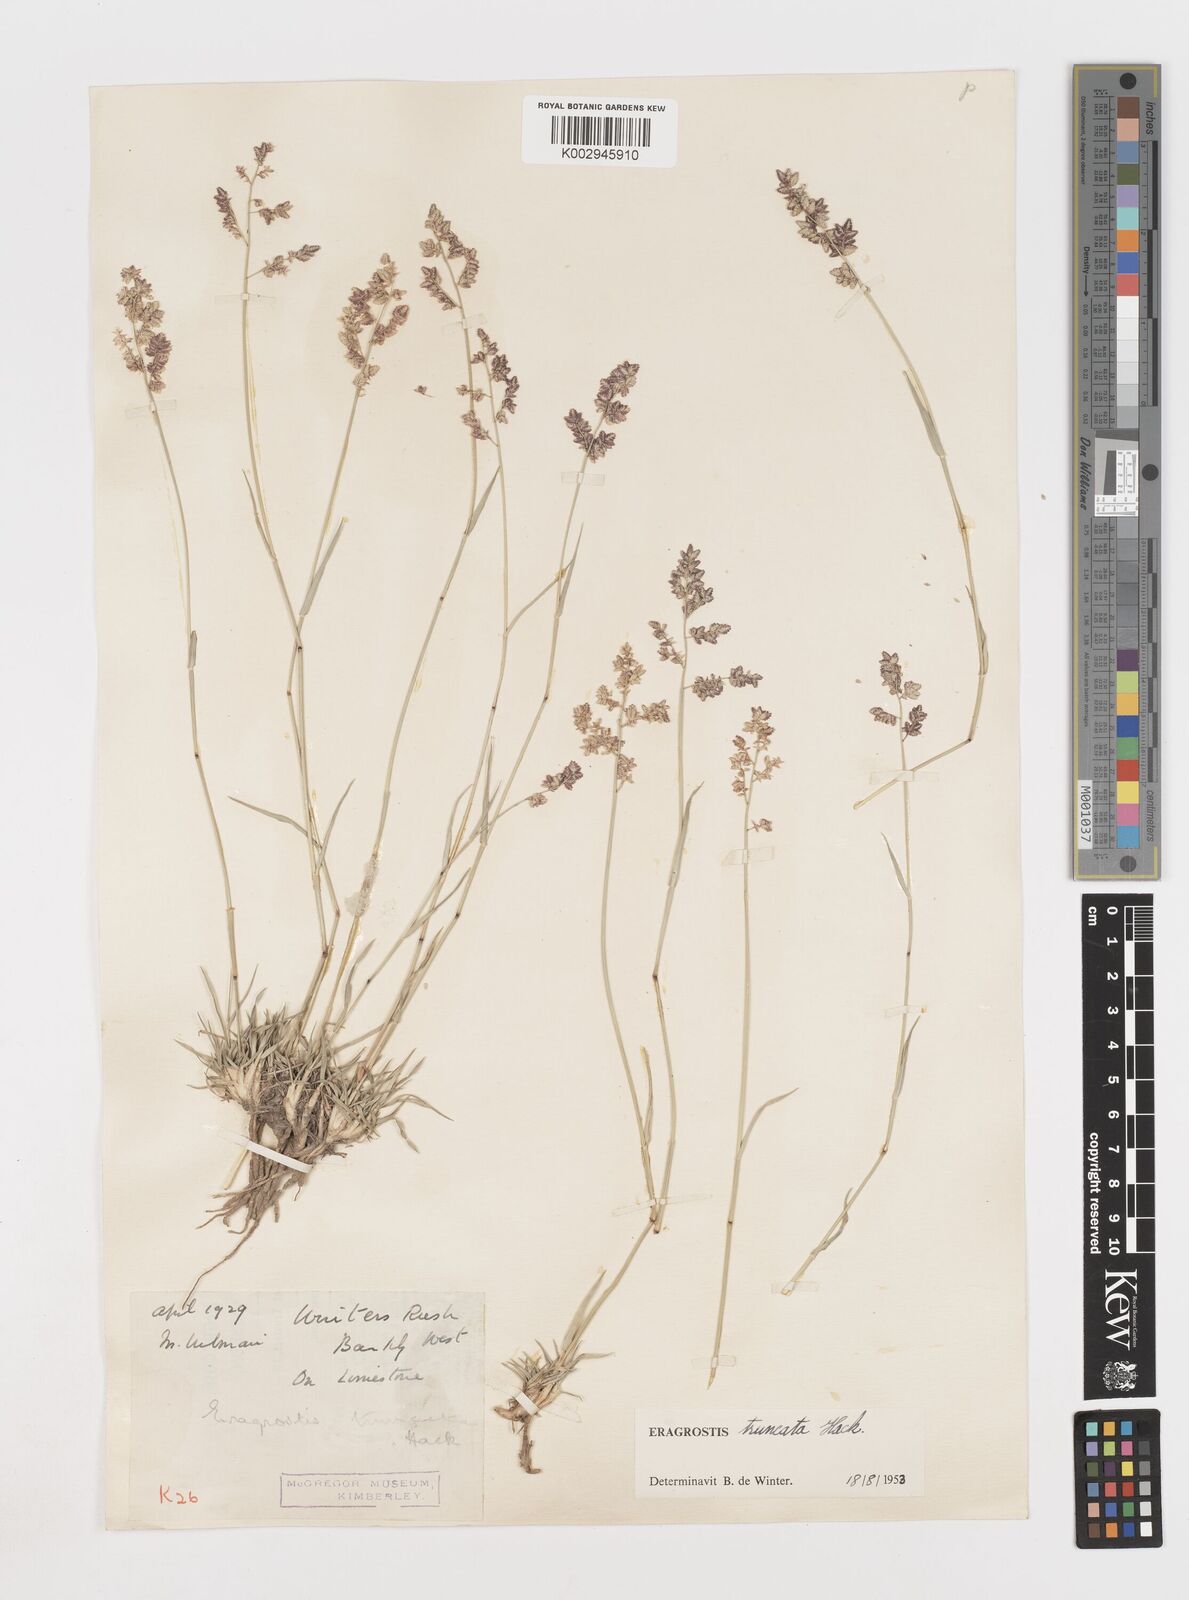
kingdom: Plantae
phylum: Tracheophyta
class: Liliopsida
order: Poales
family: Poaceae
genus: Eragrostis
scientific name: Eragrostis truncata
